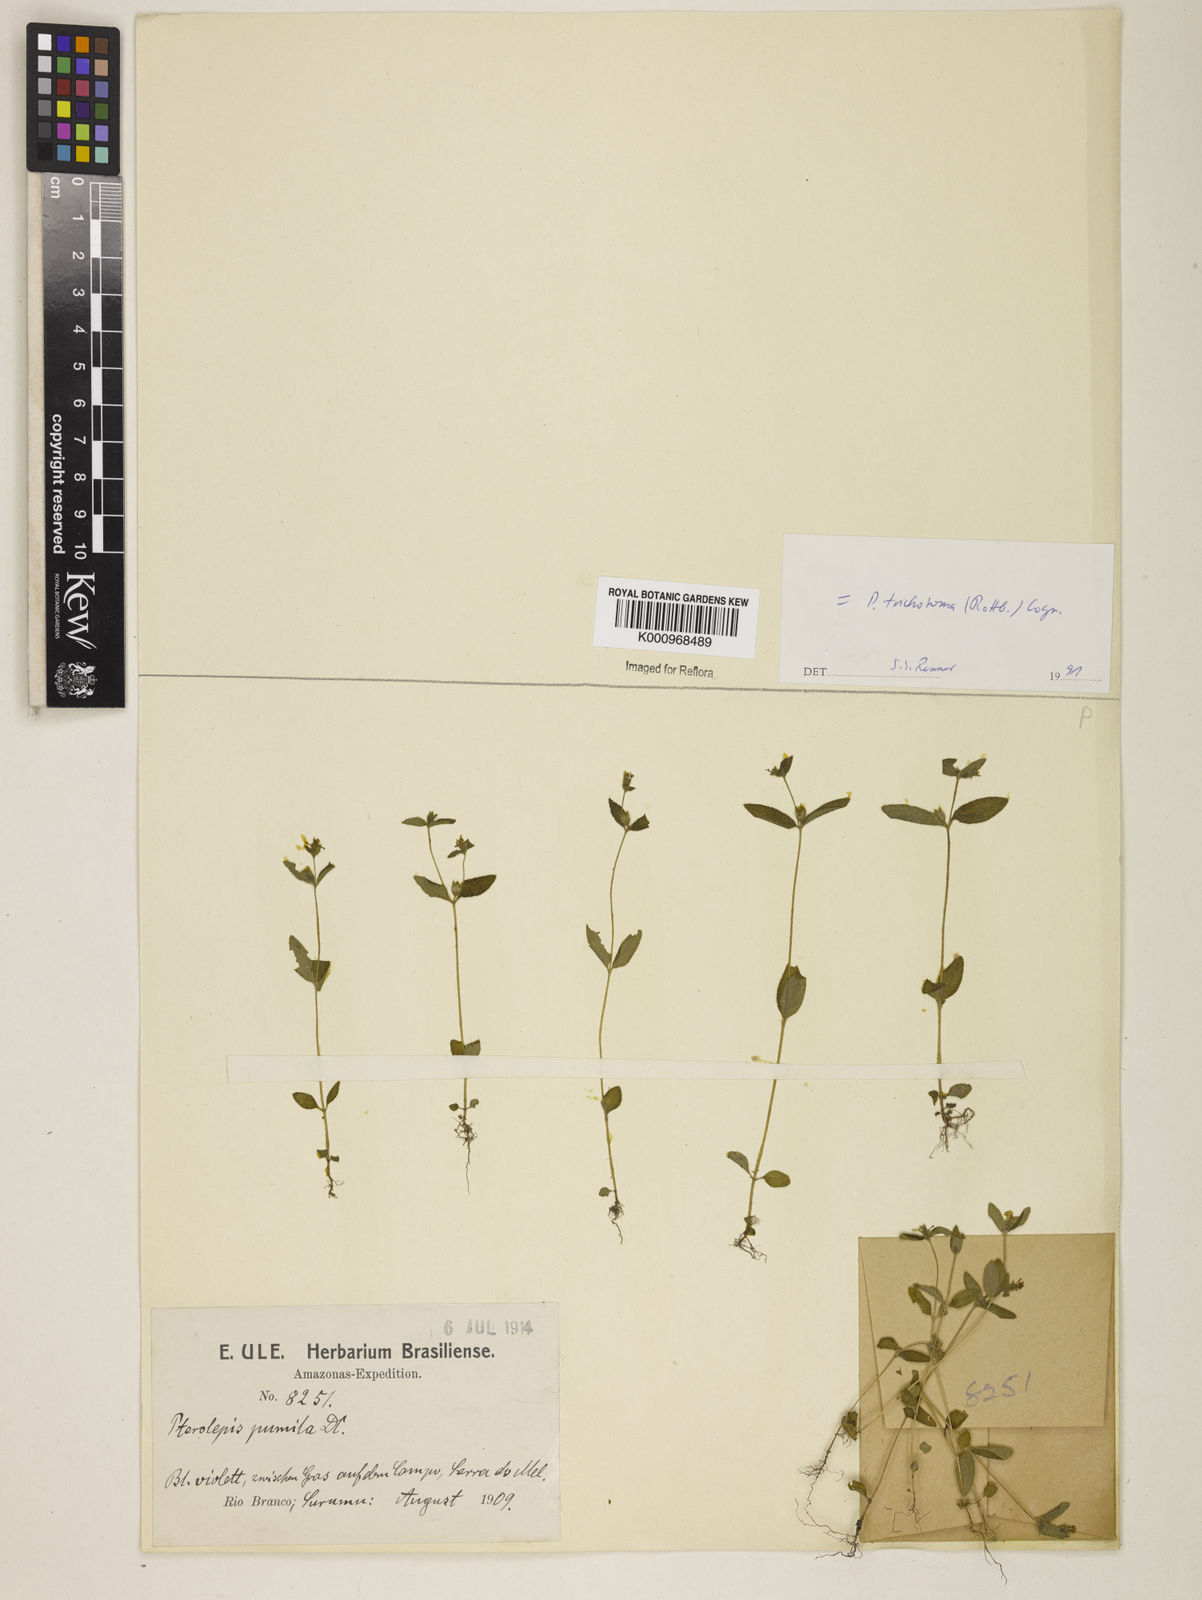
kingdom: Plantae
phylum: Tracheophyta
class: Magnoliopsida
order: Myrtales
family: Melastomataceae
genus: Pterolepis
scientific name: Pterolepis trichotoma
